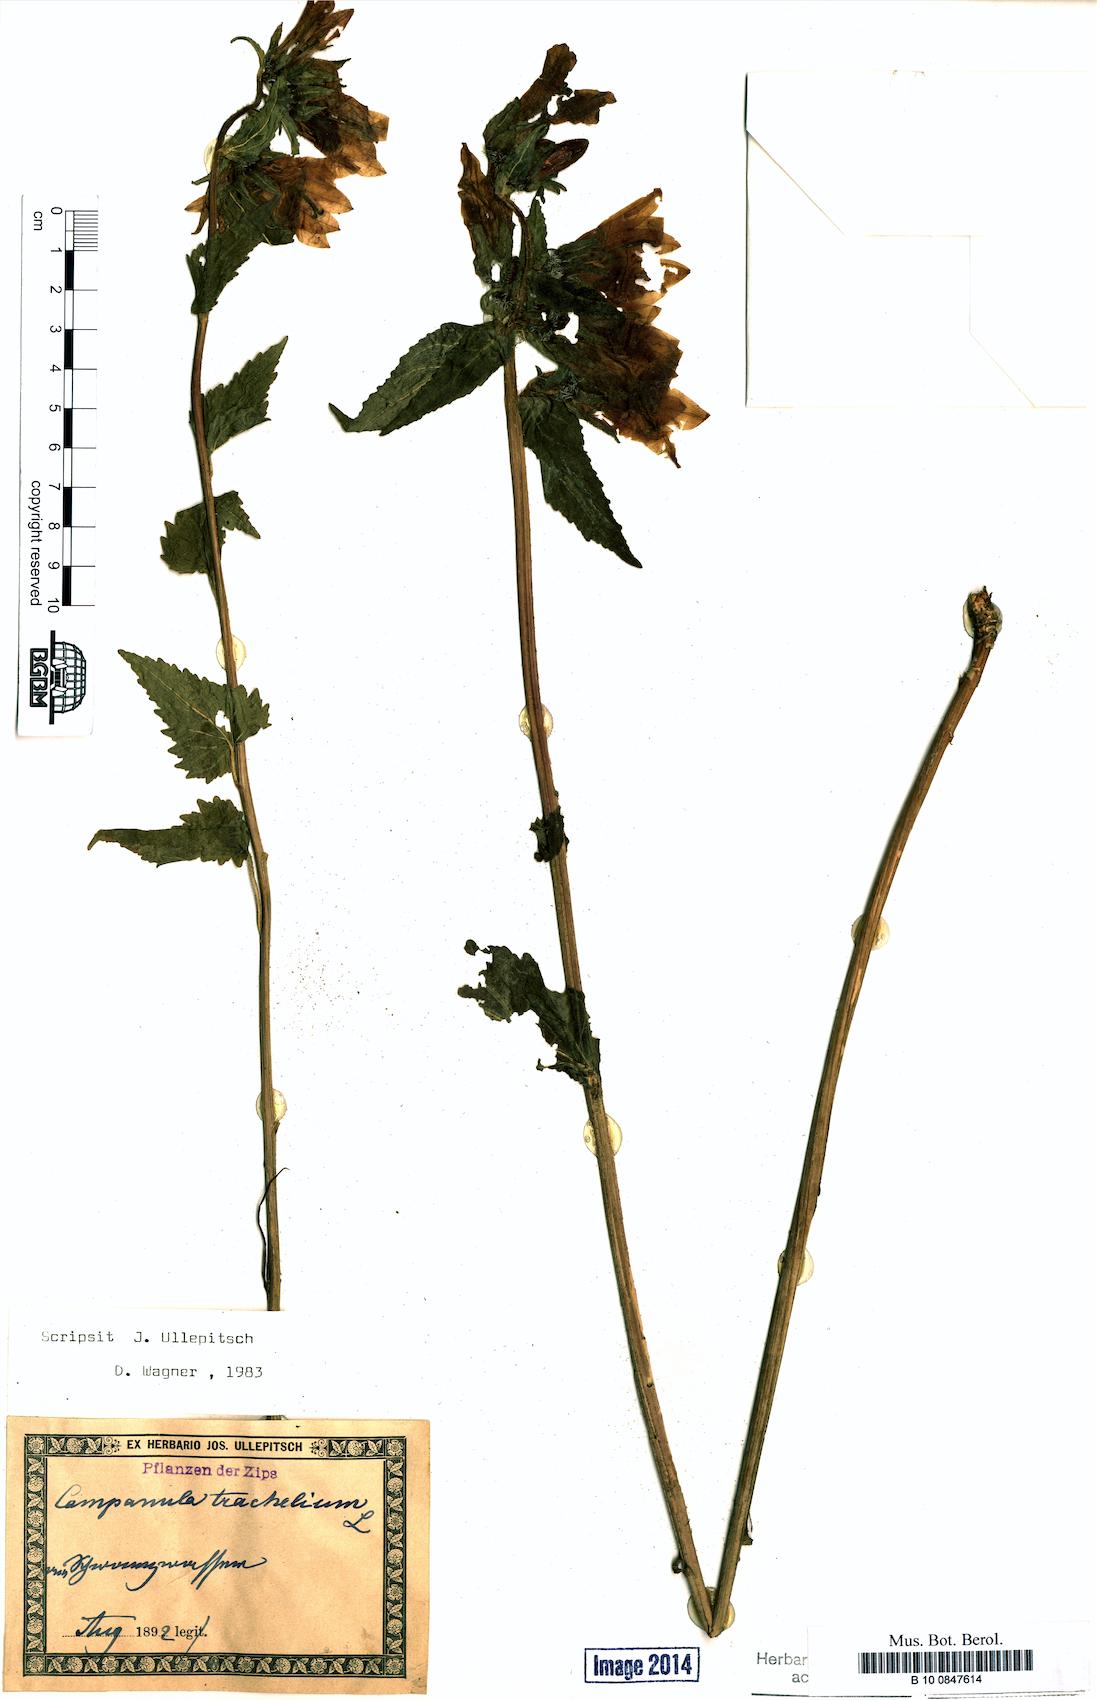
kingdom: Plantae
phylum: Tracheophyta
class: Magnoliopsida
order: Asterales
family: Campanulaceae
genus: Campanula
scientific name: Campanula trachelium
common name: Nettle-leaved bellflower
